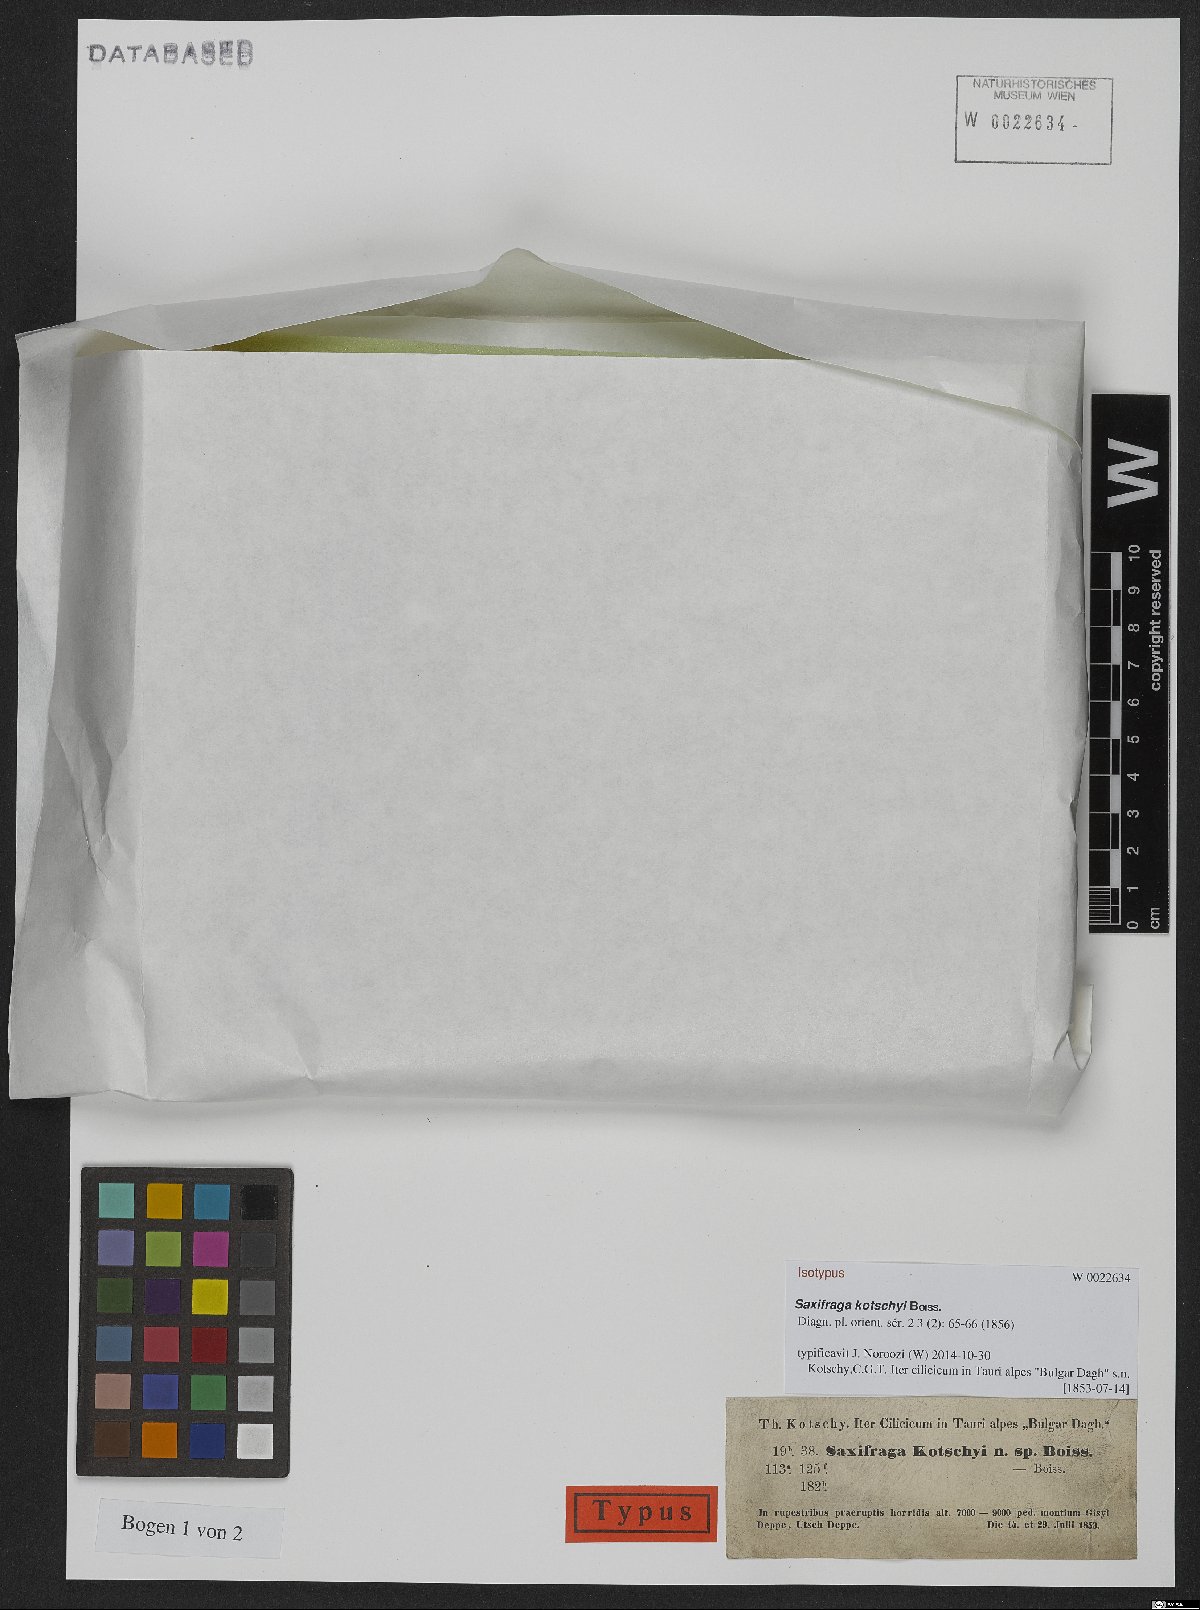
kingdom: Plantae
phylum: Tracheophyta
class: Magnoliopsida
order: Saxifragales
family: Saxifragaceae
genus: Saxifraga
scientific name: Saxifraga kotschyi
